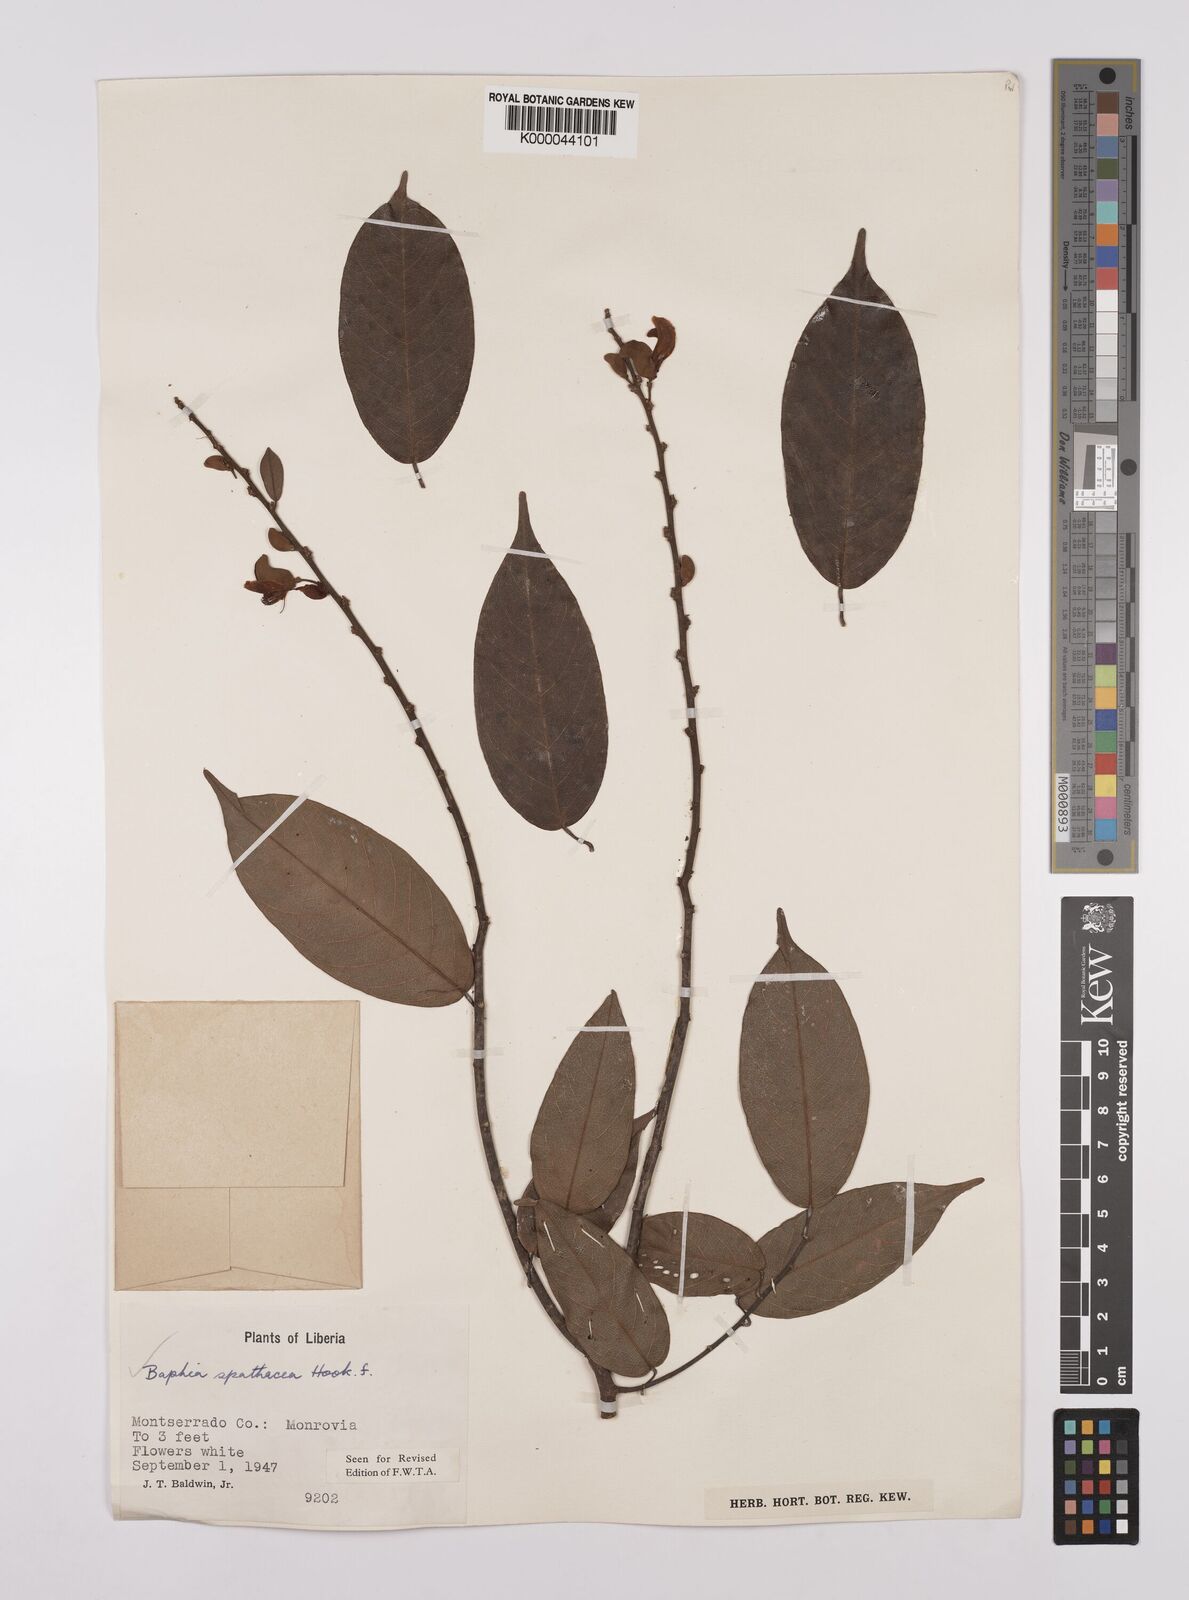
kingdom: Plantae
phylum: Tracheophyta
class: Magnoliopsida
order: Fabales
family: Fabaceae
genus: Baphia
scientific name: Baphia spathacea
